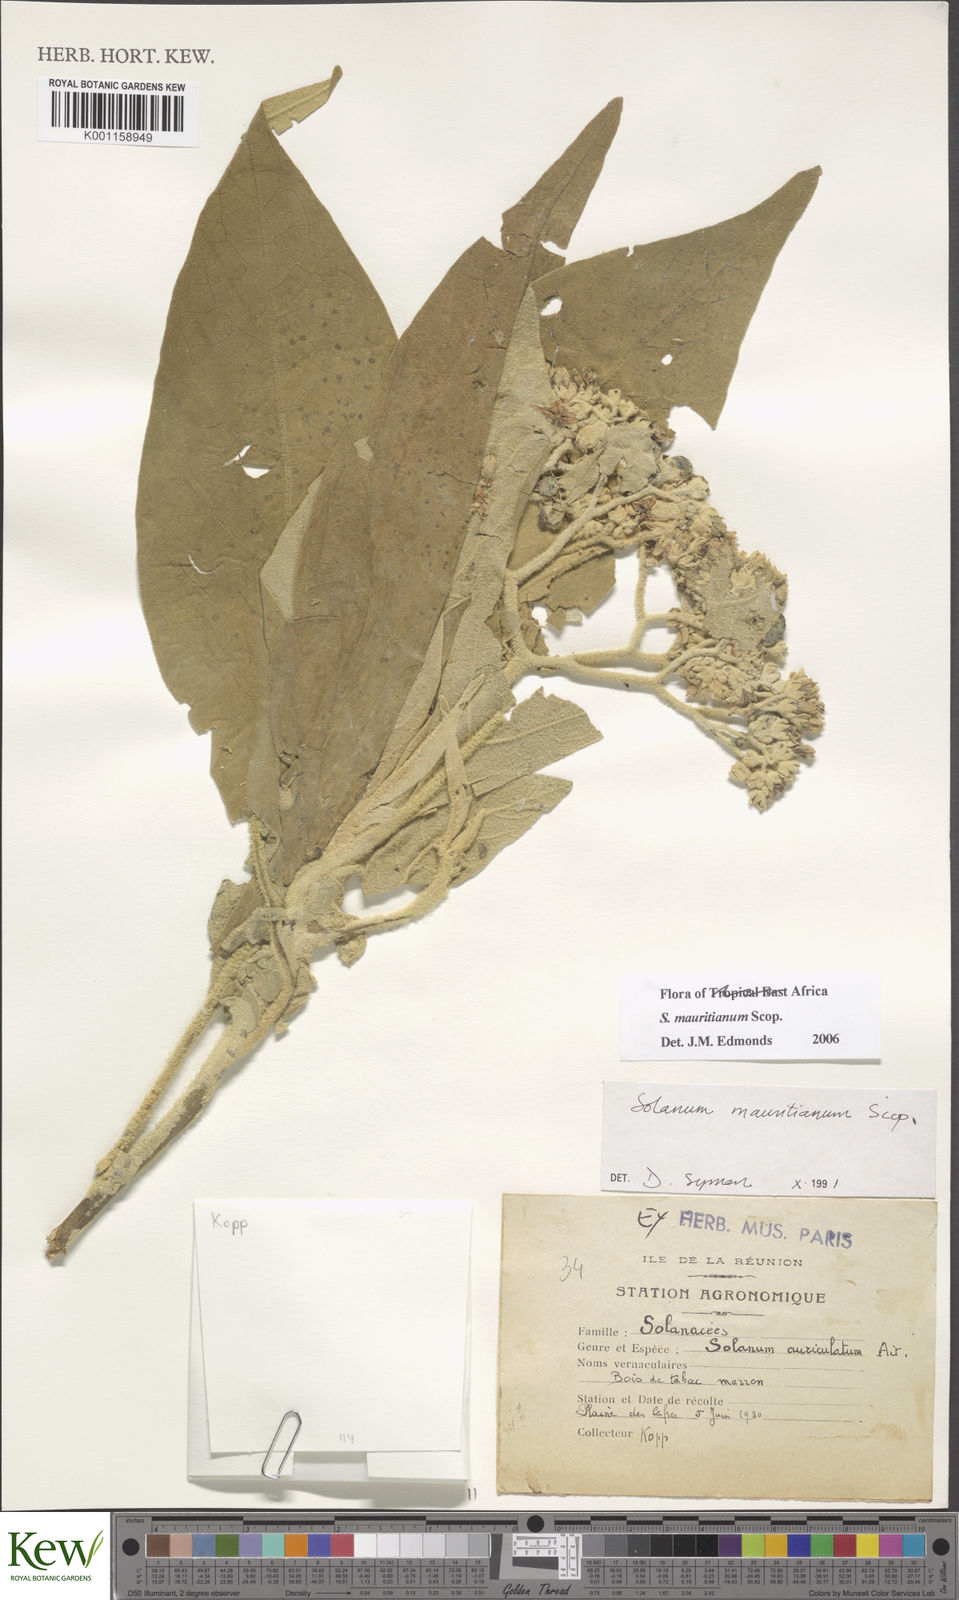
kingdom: Plantae
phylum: Tracheophyta
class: Magnoliopsida
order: Solanales
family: Solanaceae
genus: Solanum
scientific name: Solanum mauritianum
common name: Earleaf nightshade
